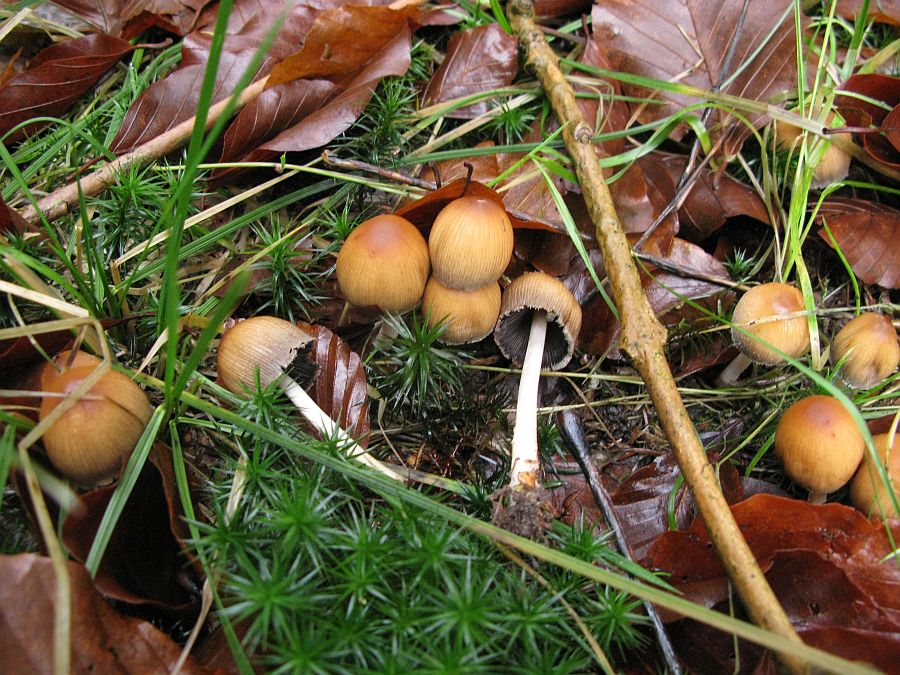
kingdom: Fungi
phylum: Basidiomycota
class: Agaricomycetes
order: Agaricales
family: Psathyrellaceae
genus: Coprinellus
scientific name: Coprinellus micaceus
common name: glimmer-blækhat
